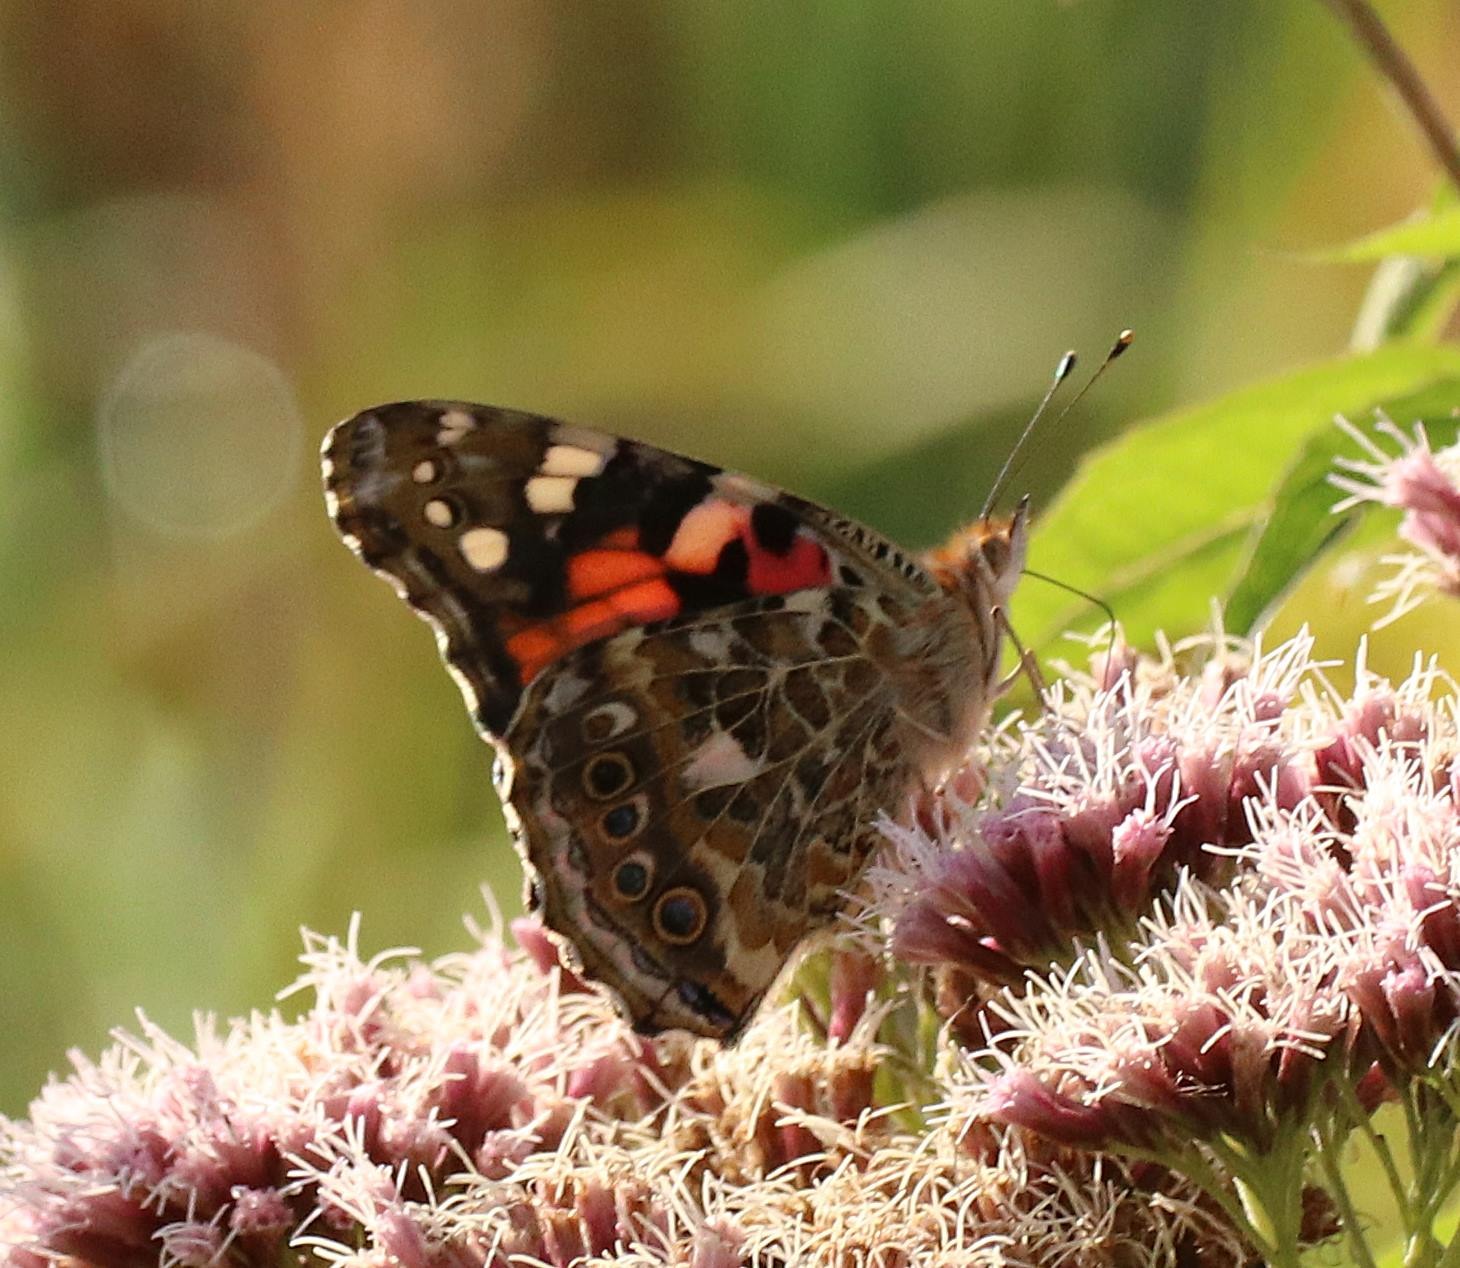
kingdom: Animalia
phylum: Arthropoda
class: Insecta
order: Lepidoptera
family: Nymphalidae
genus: Vanessa
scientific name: Vanessa cardui
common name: Tidselsommerfugl
